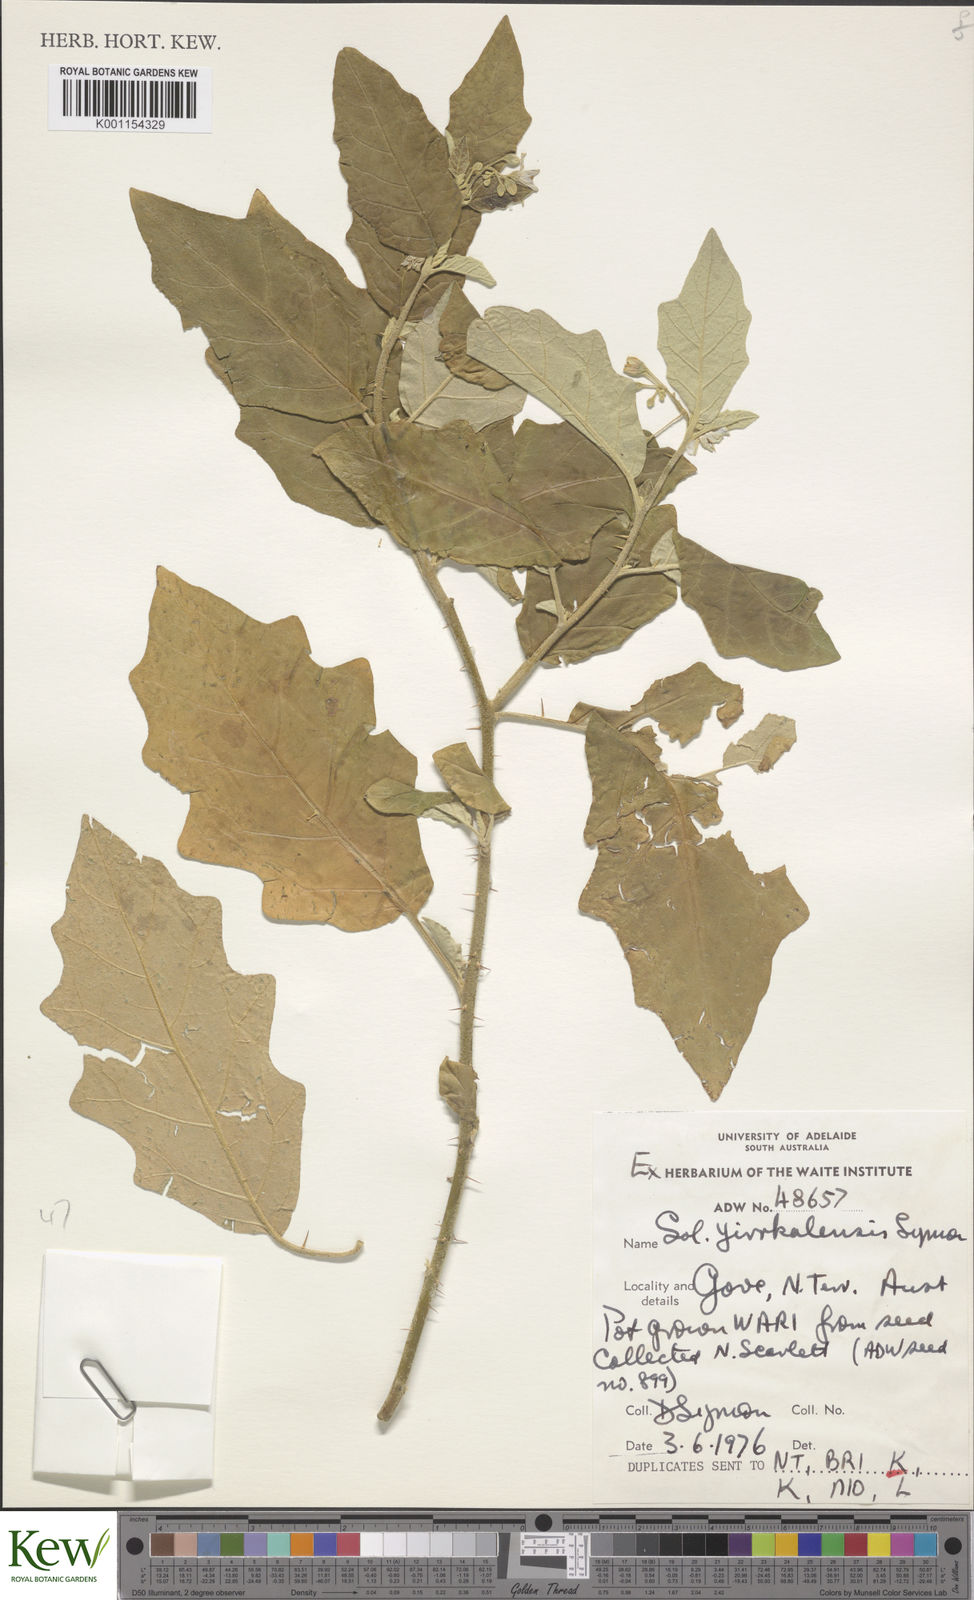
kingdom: Plantae
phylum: Tracheophyta
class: Magnoliopsida
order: Solanales
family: Solanaceae
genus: Solanum
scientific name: Solanum yirrkalense
